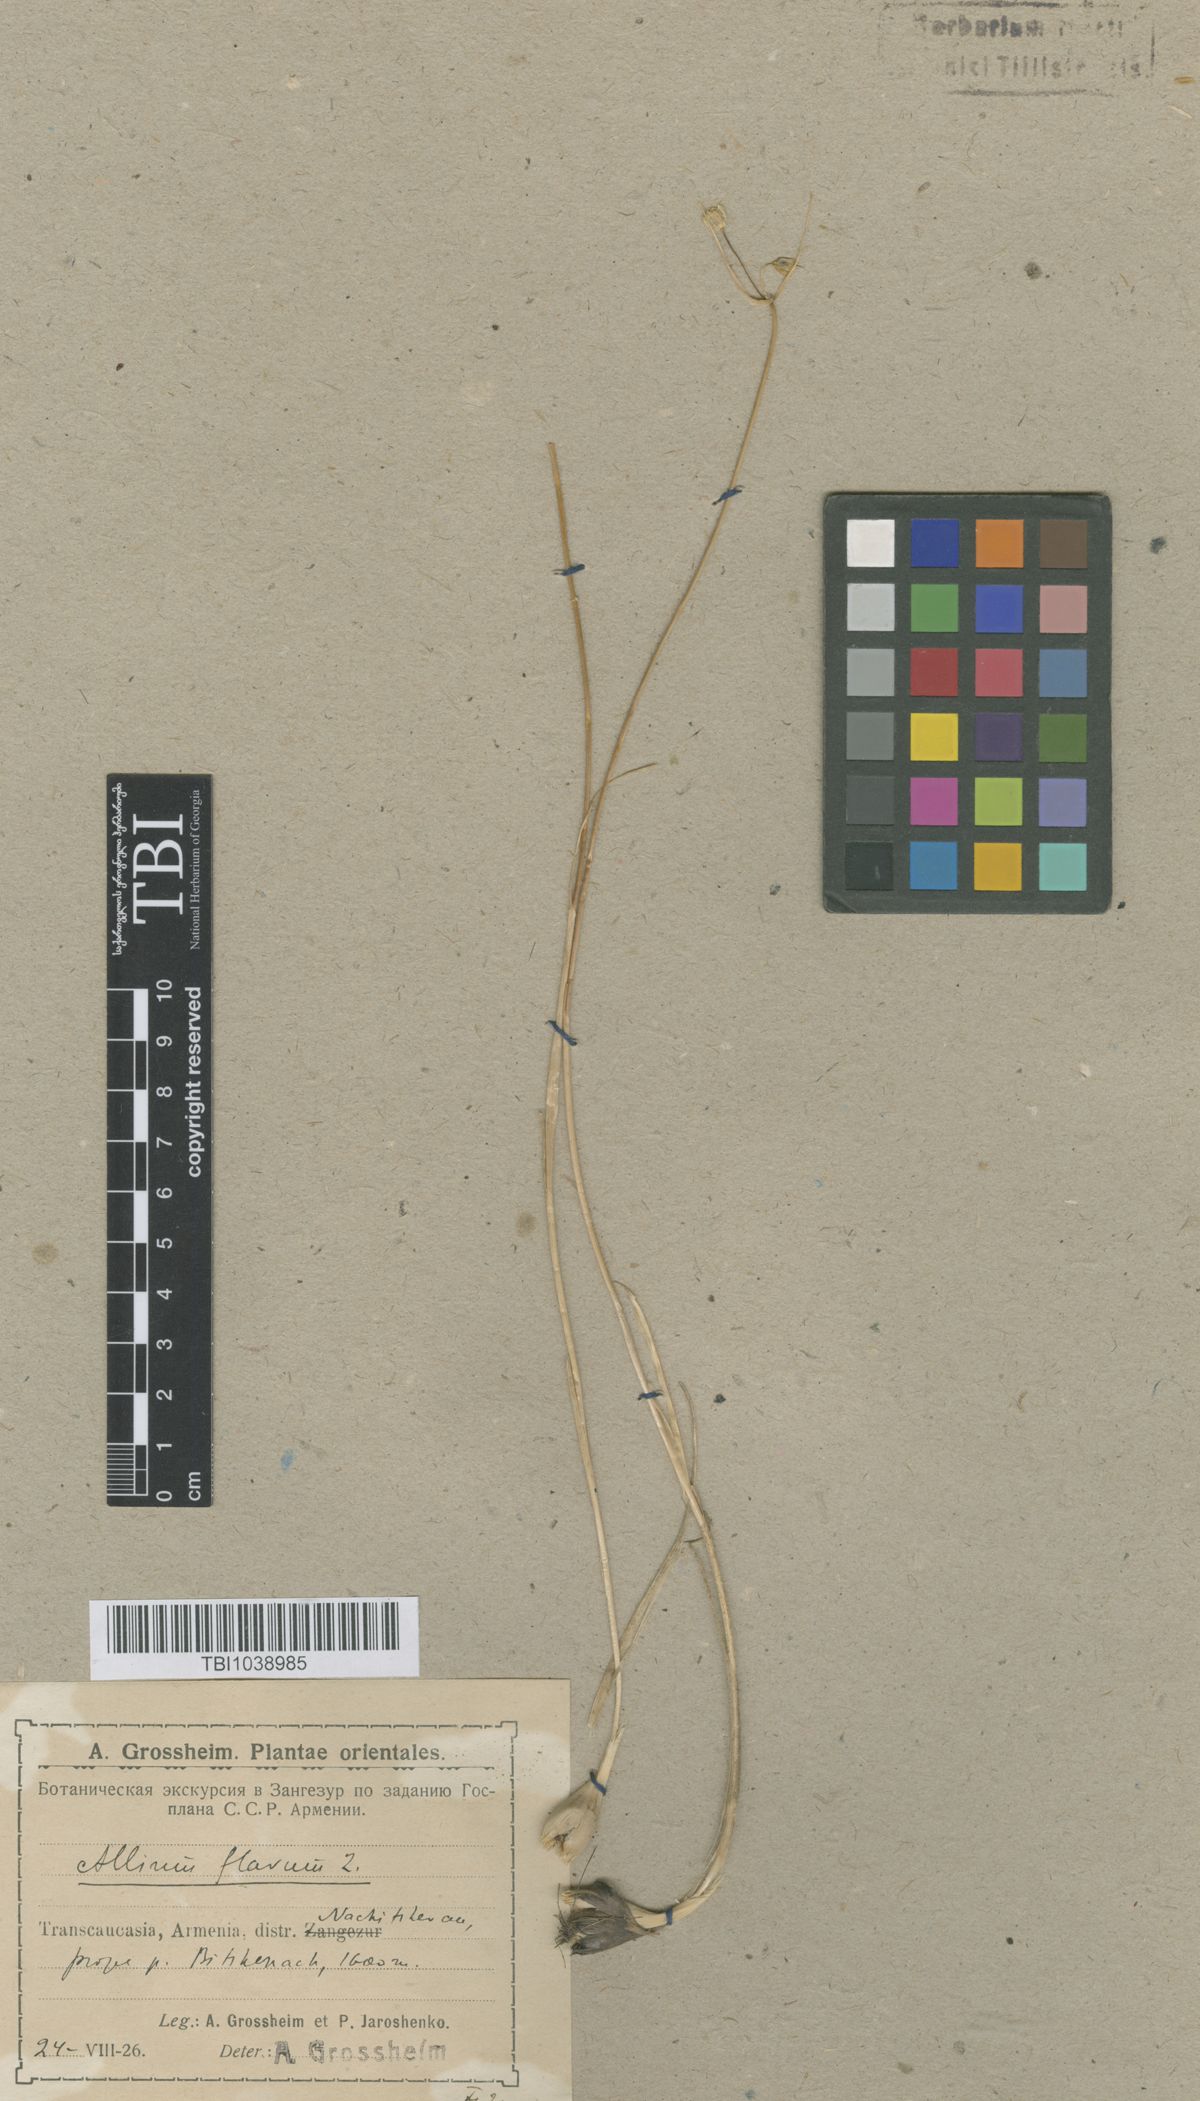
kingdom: Plantae
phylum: Tracheophyta
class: Liliopsida
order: Asparagales
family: Amaryllidaceae
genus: Allium
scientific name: Allium pseudoflavum
